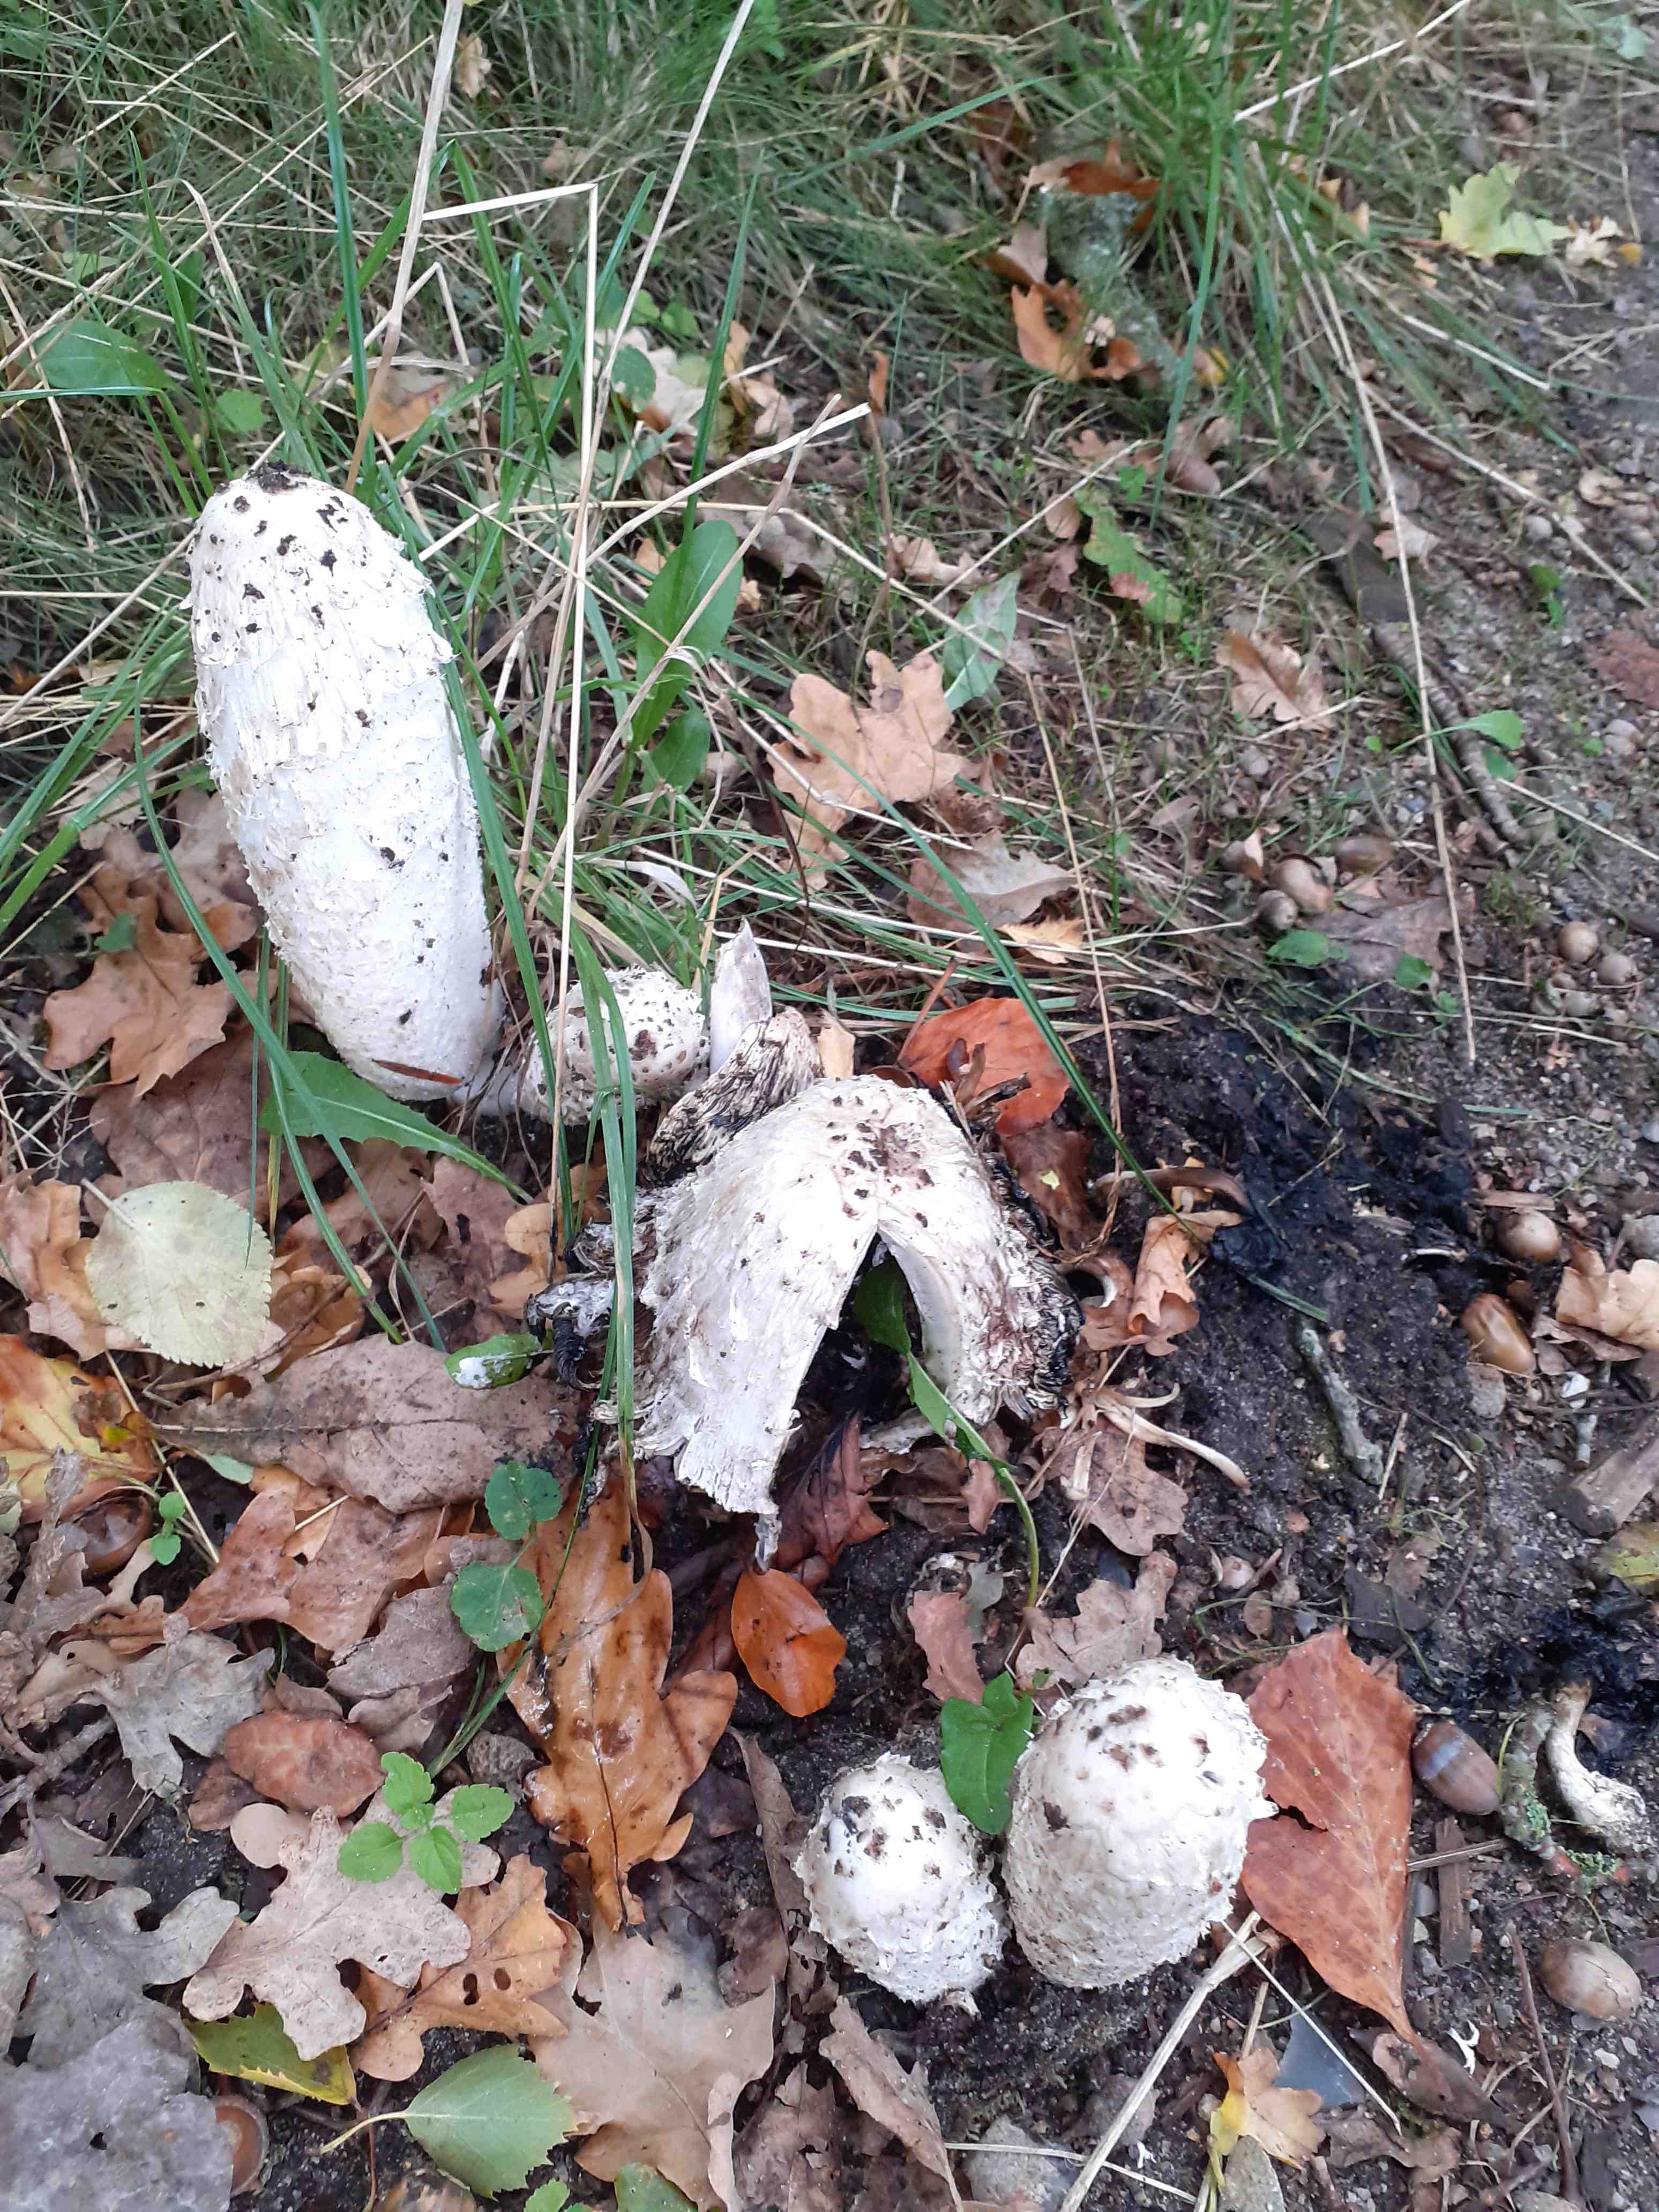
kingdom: Fungi
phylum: Basidiomycota
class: Agaricomycetes
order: Agaricales
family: Agaricaceae
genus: Coprinus
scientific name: Coprinus comatus
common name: stor parykhat
